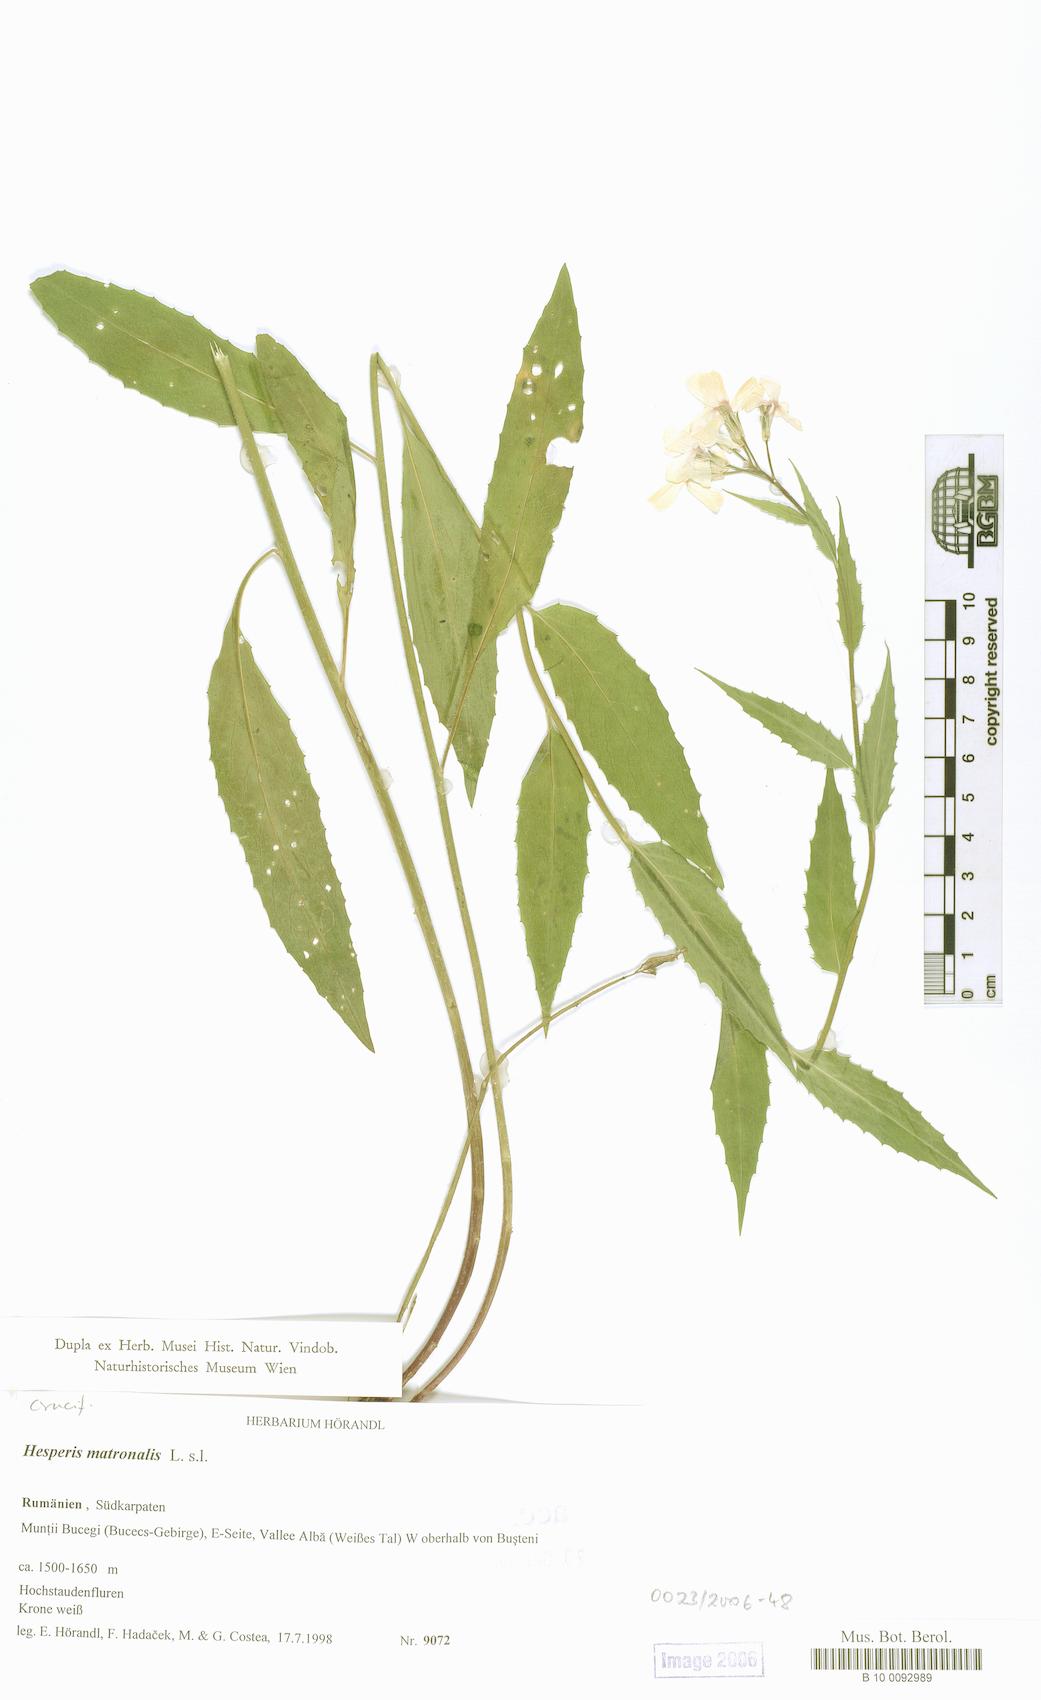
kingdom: Plantae
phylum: Tracheophyta
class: Magnoliopsida
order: Brassicales
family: Brassicaceae
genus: Hesperis
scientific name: Hesperis matronalis
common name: Dame's-violet
